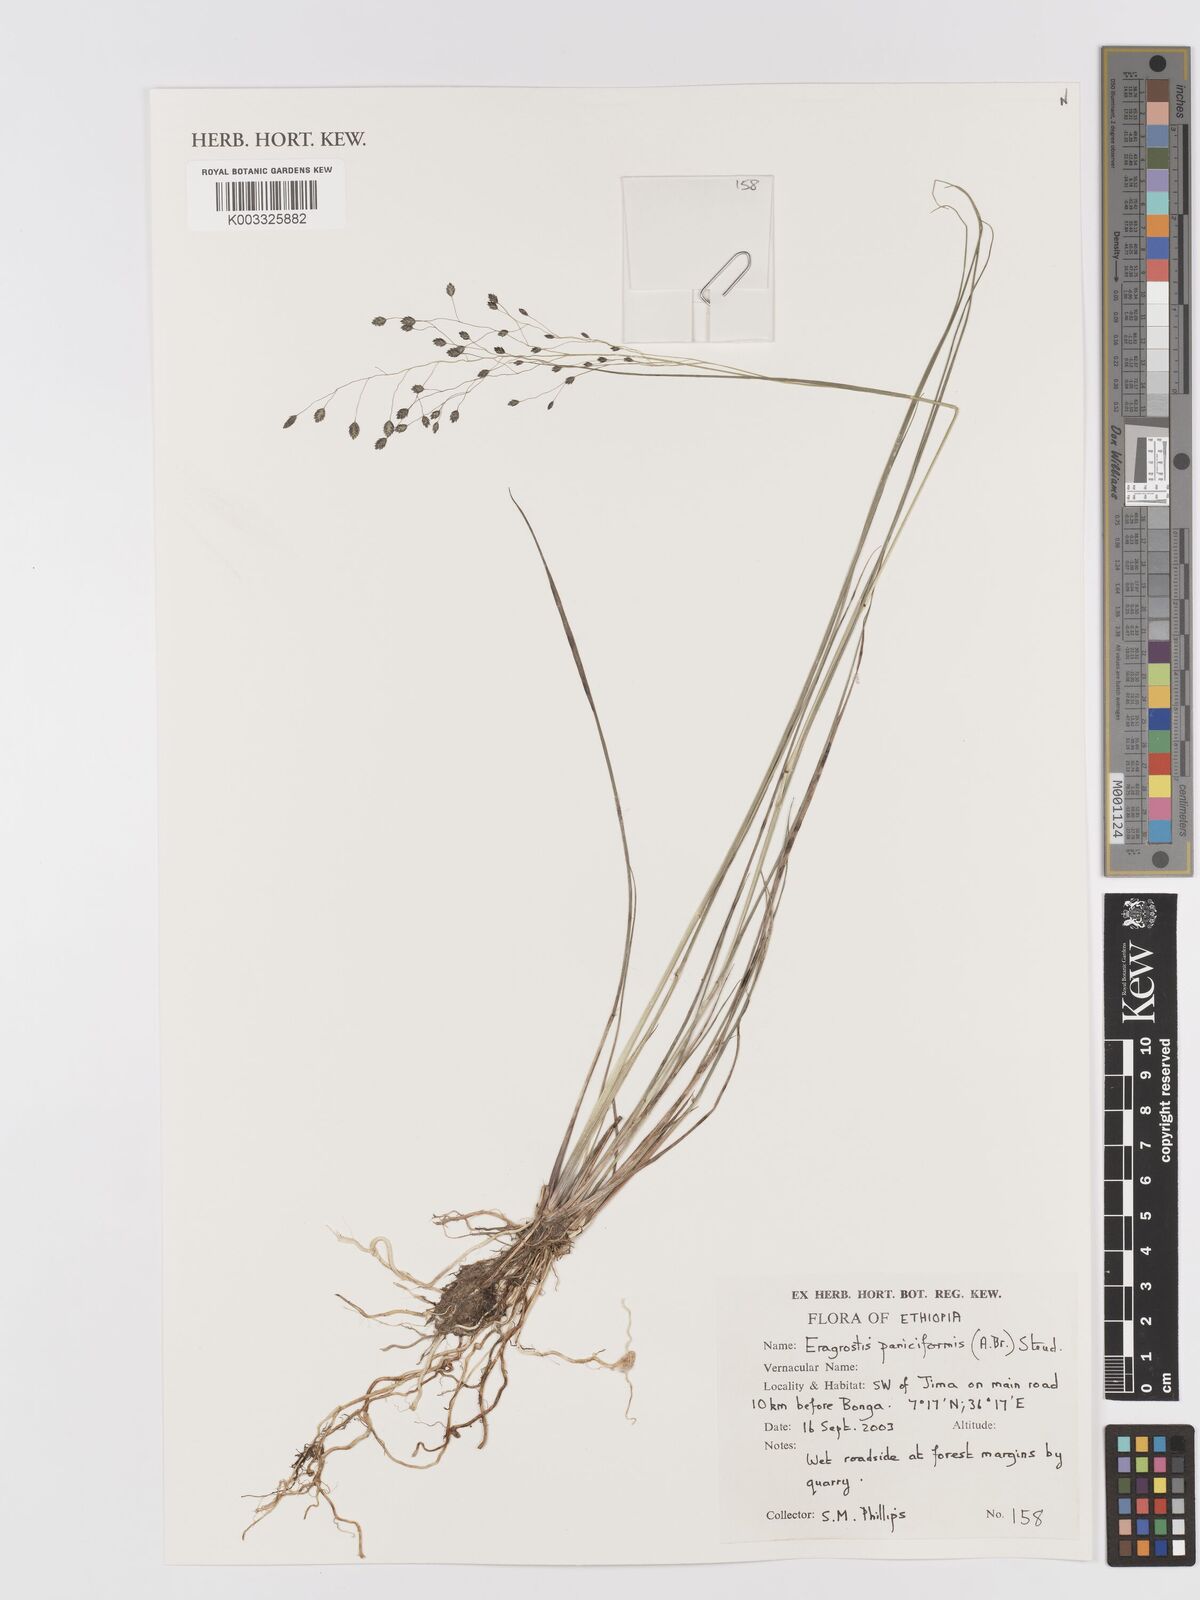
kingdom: Plantae
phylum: Tracheophyta
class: Liliopsida
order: Poales
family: Poaceae
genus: Eragrostis
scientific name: Eragrostis paniciformis
